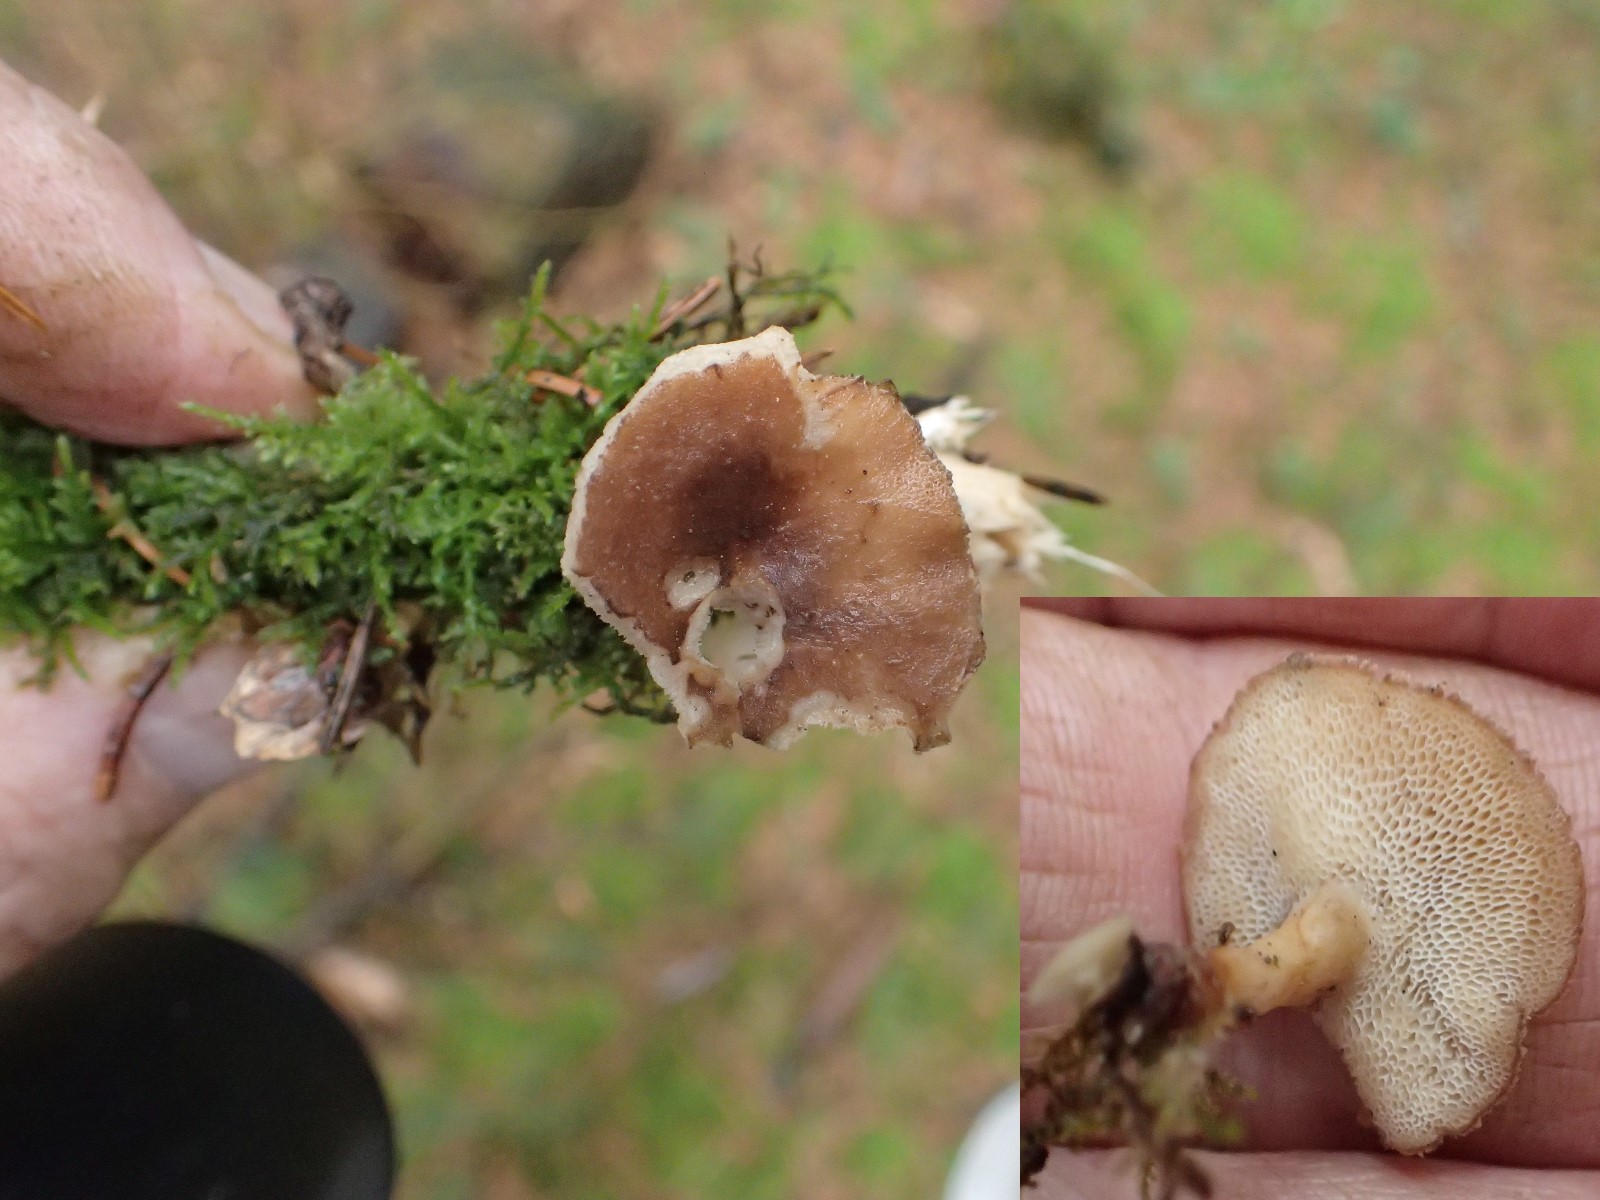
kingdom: Fungi
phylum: Basidiomycota
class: Agaricomycetes
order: Polyporales
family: Polyporaceae
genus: Lentinus
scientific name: Lentinus brumalis
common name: vinter-stilkporesvamp
